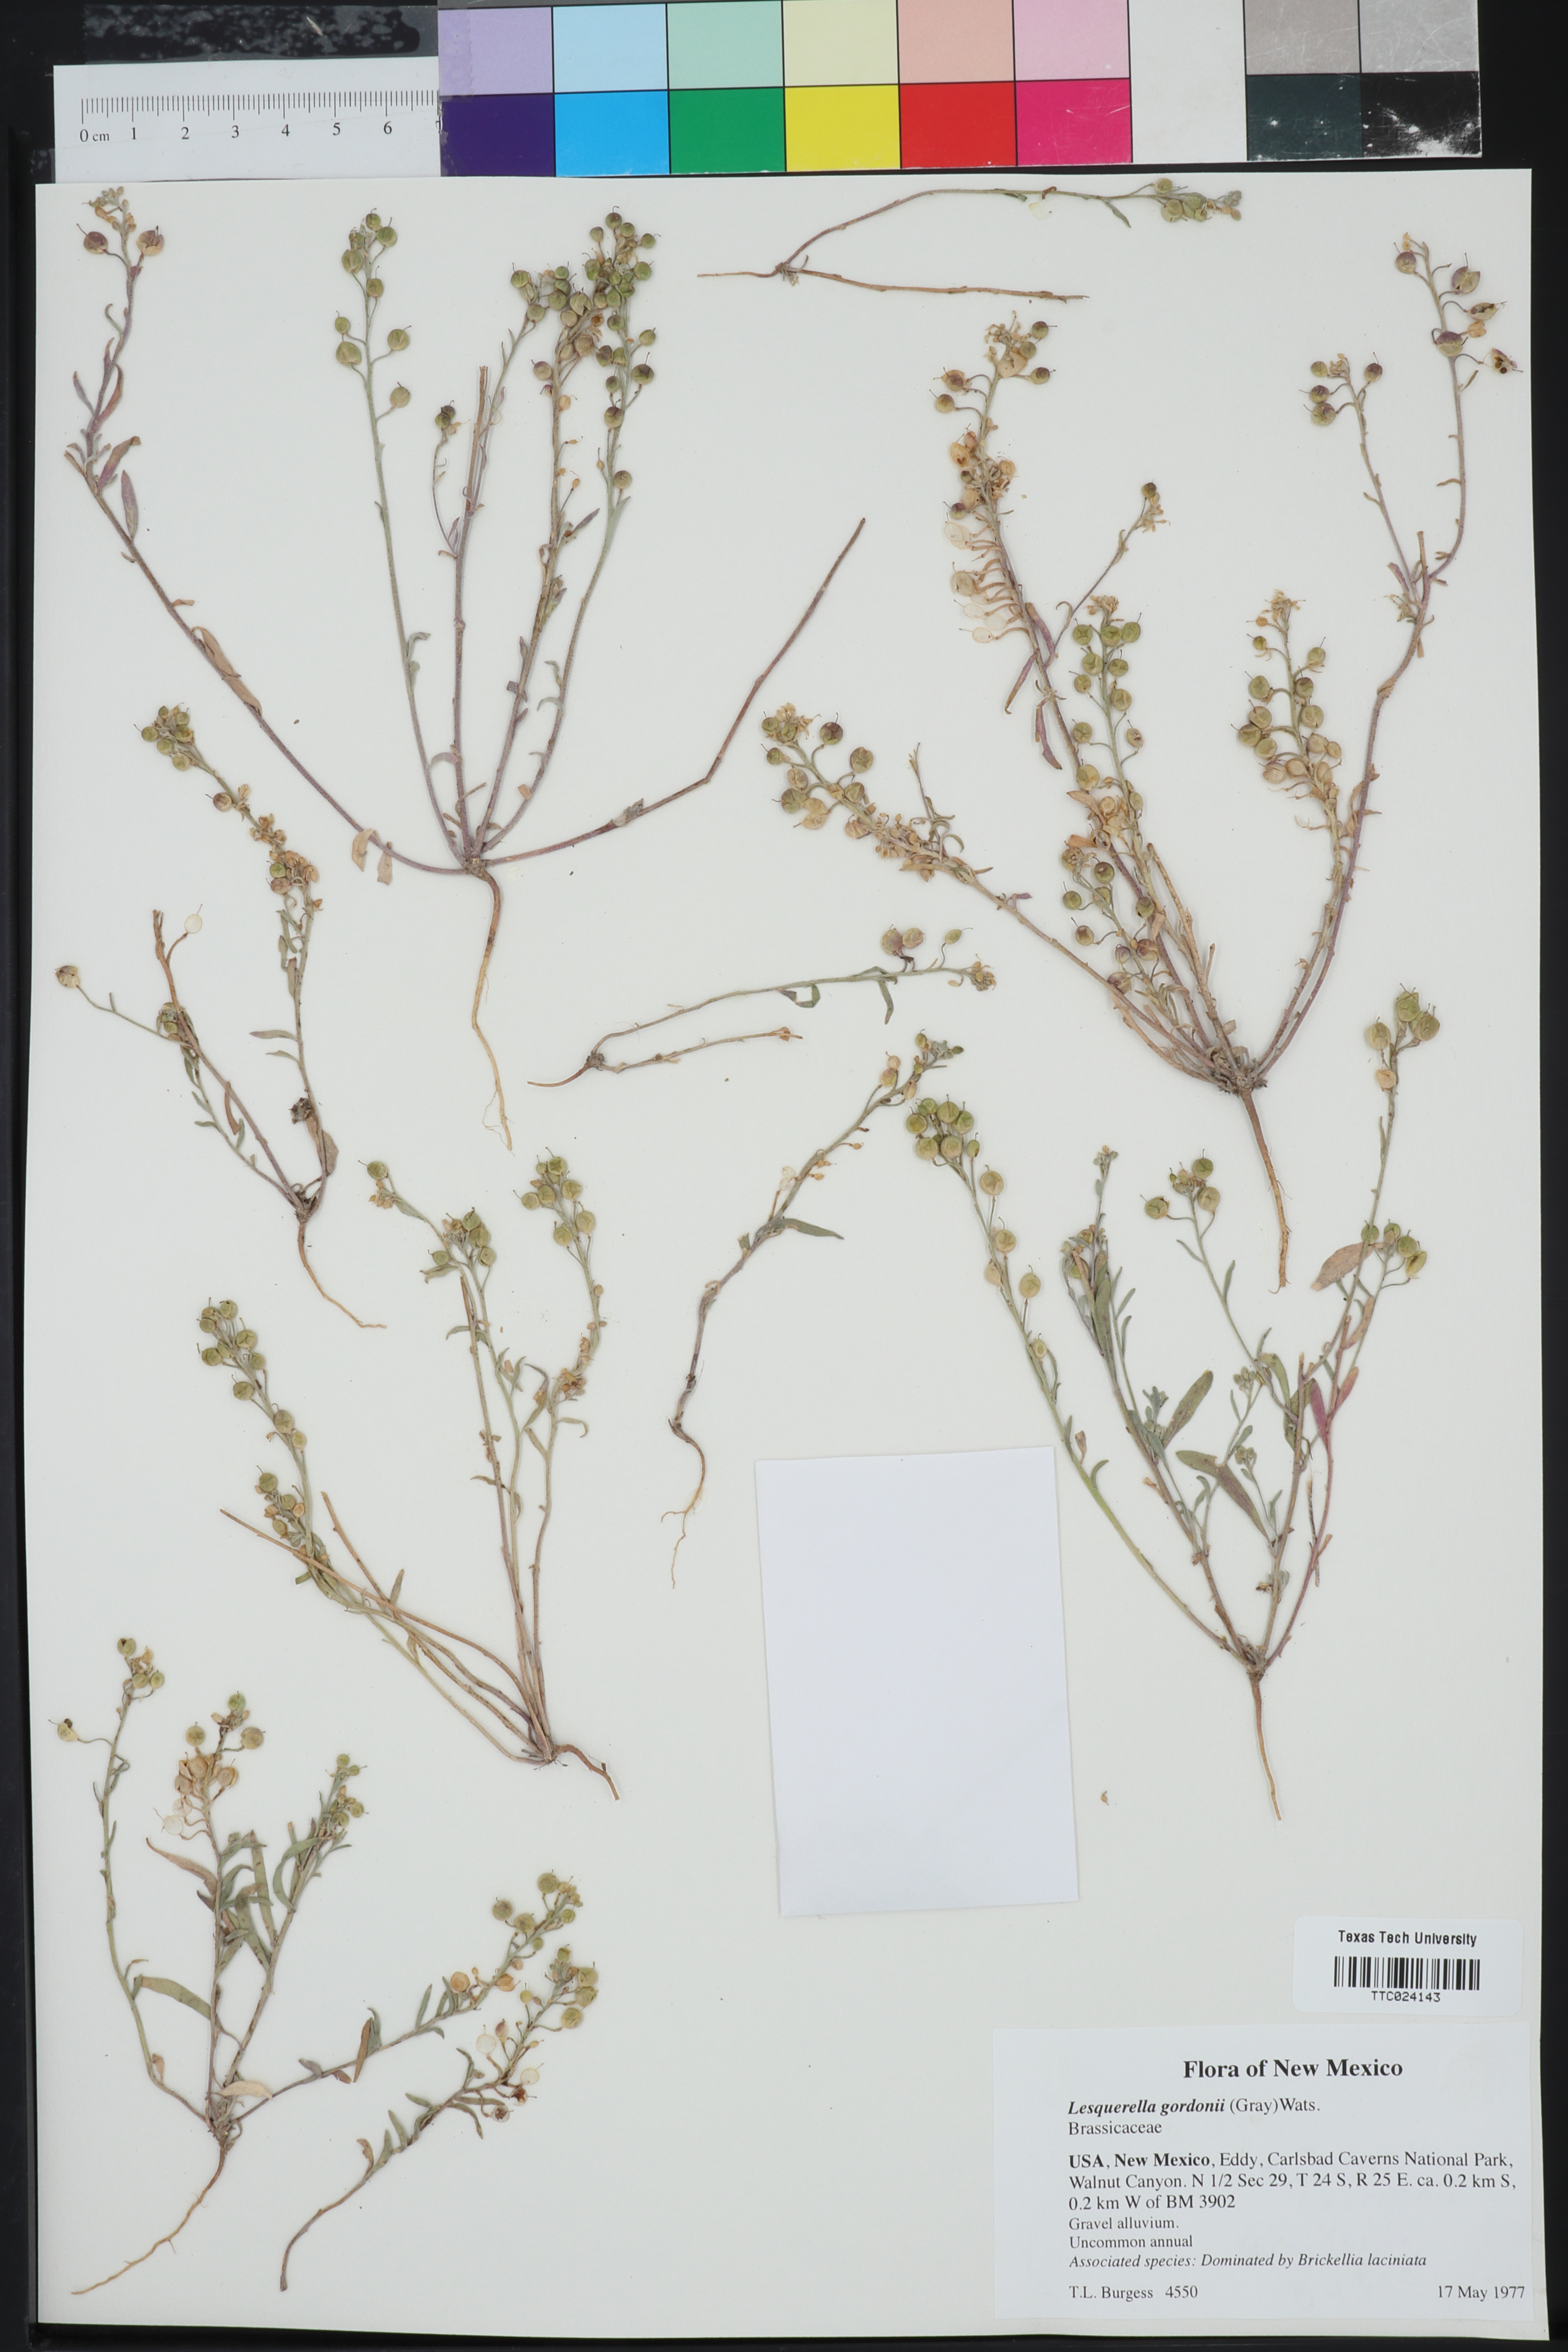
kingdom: Plantae
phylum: Tracheophyta
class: Magnoliopsida
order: Brassicales
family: Brassicaceae
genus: Physaria
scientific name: Physaria gordonii
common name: Gordon's bladderpod
